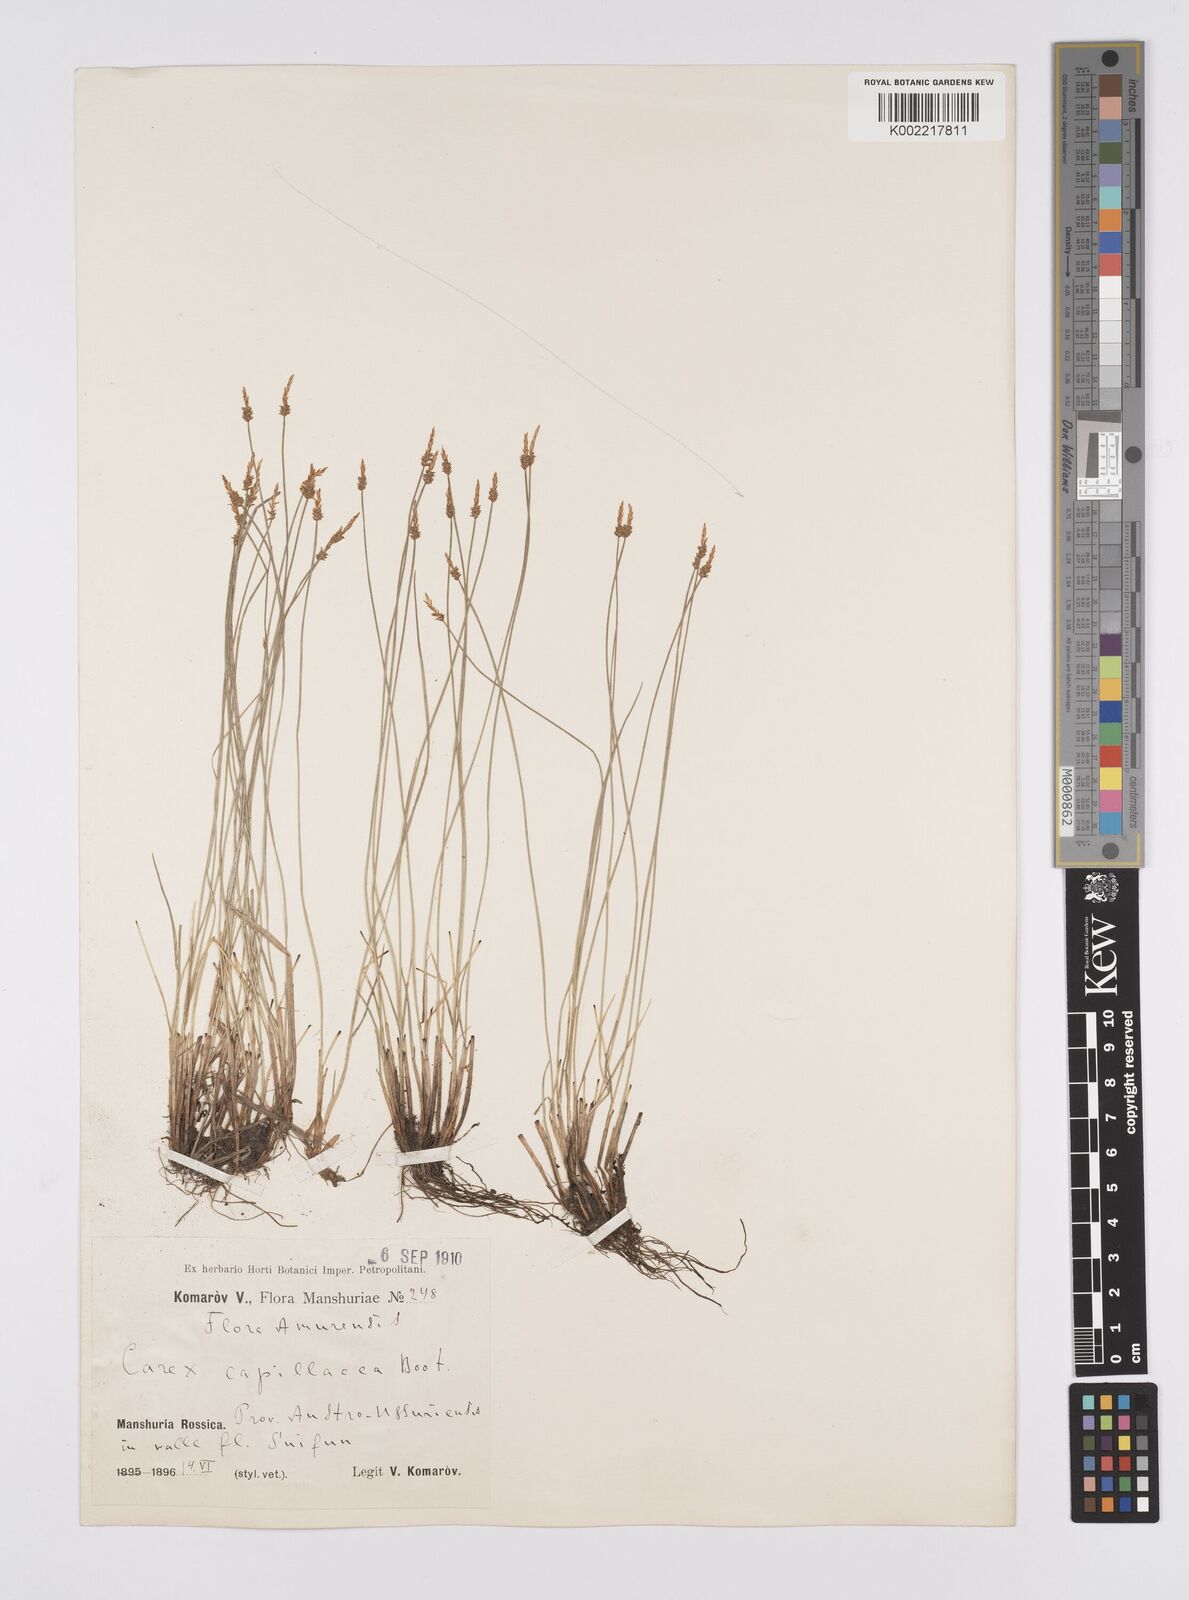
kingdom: Plantae
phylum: Tracheophyta
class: Liliopsida
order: Poales
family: Cyperaceae
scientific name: Cyperaceae
